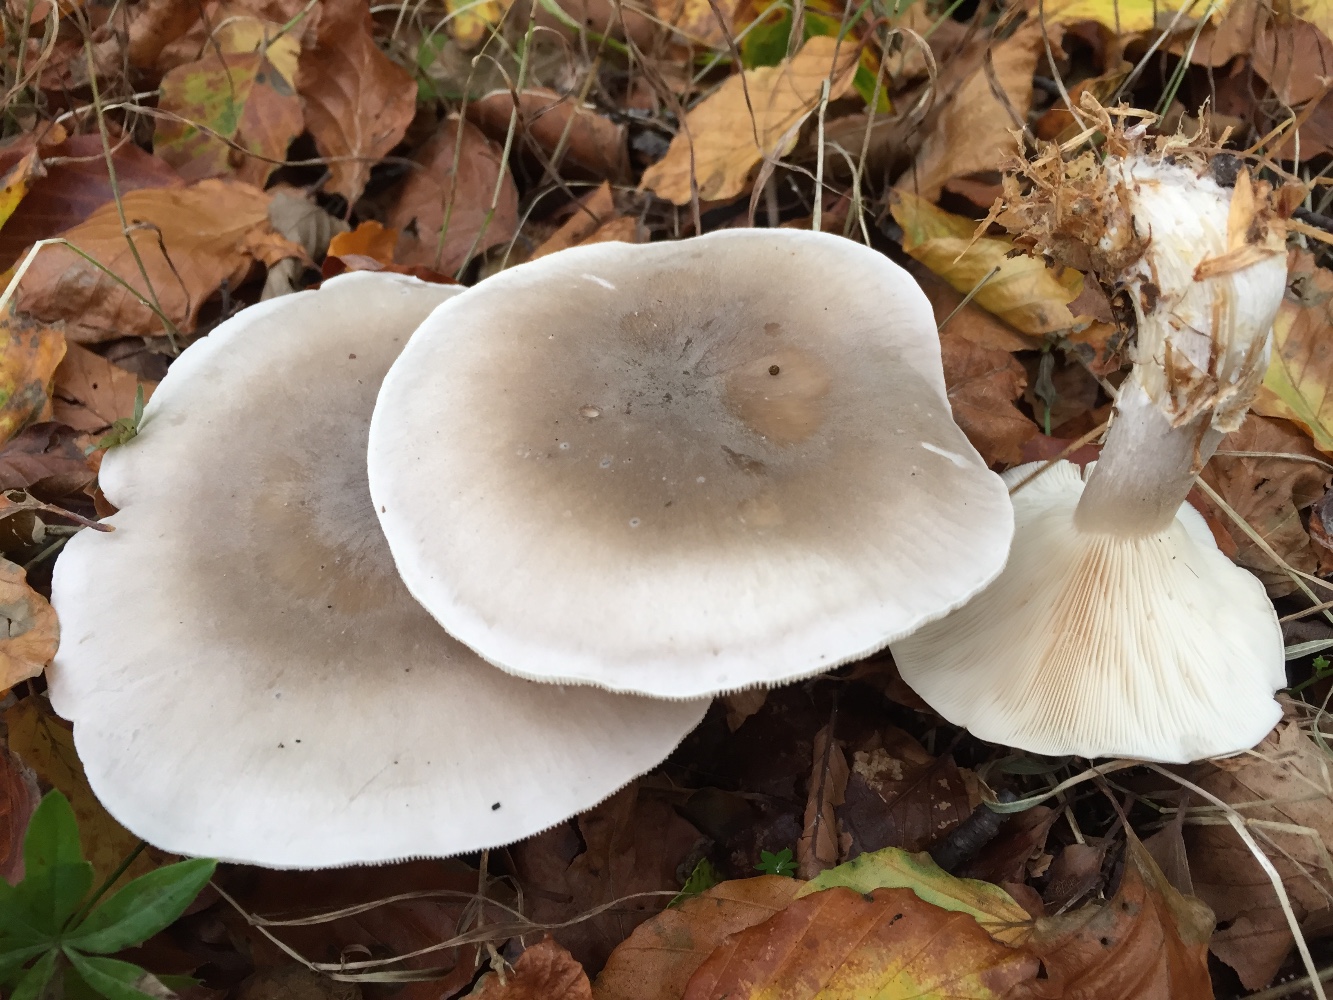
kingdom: Fungi
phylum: Basidiomycota
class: Agaricomycetes
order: Agaricales
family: Tricholomataceae
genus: Clitocybe
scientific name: Clitocybe nebularis
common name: tåge-tragthat
